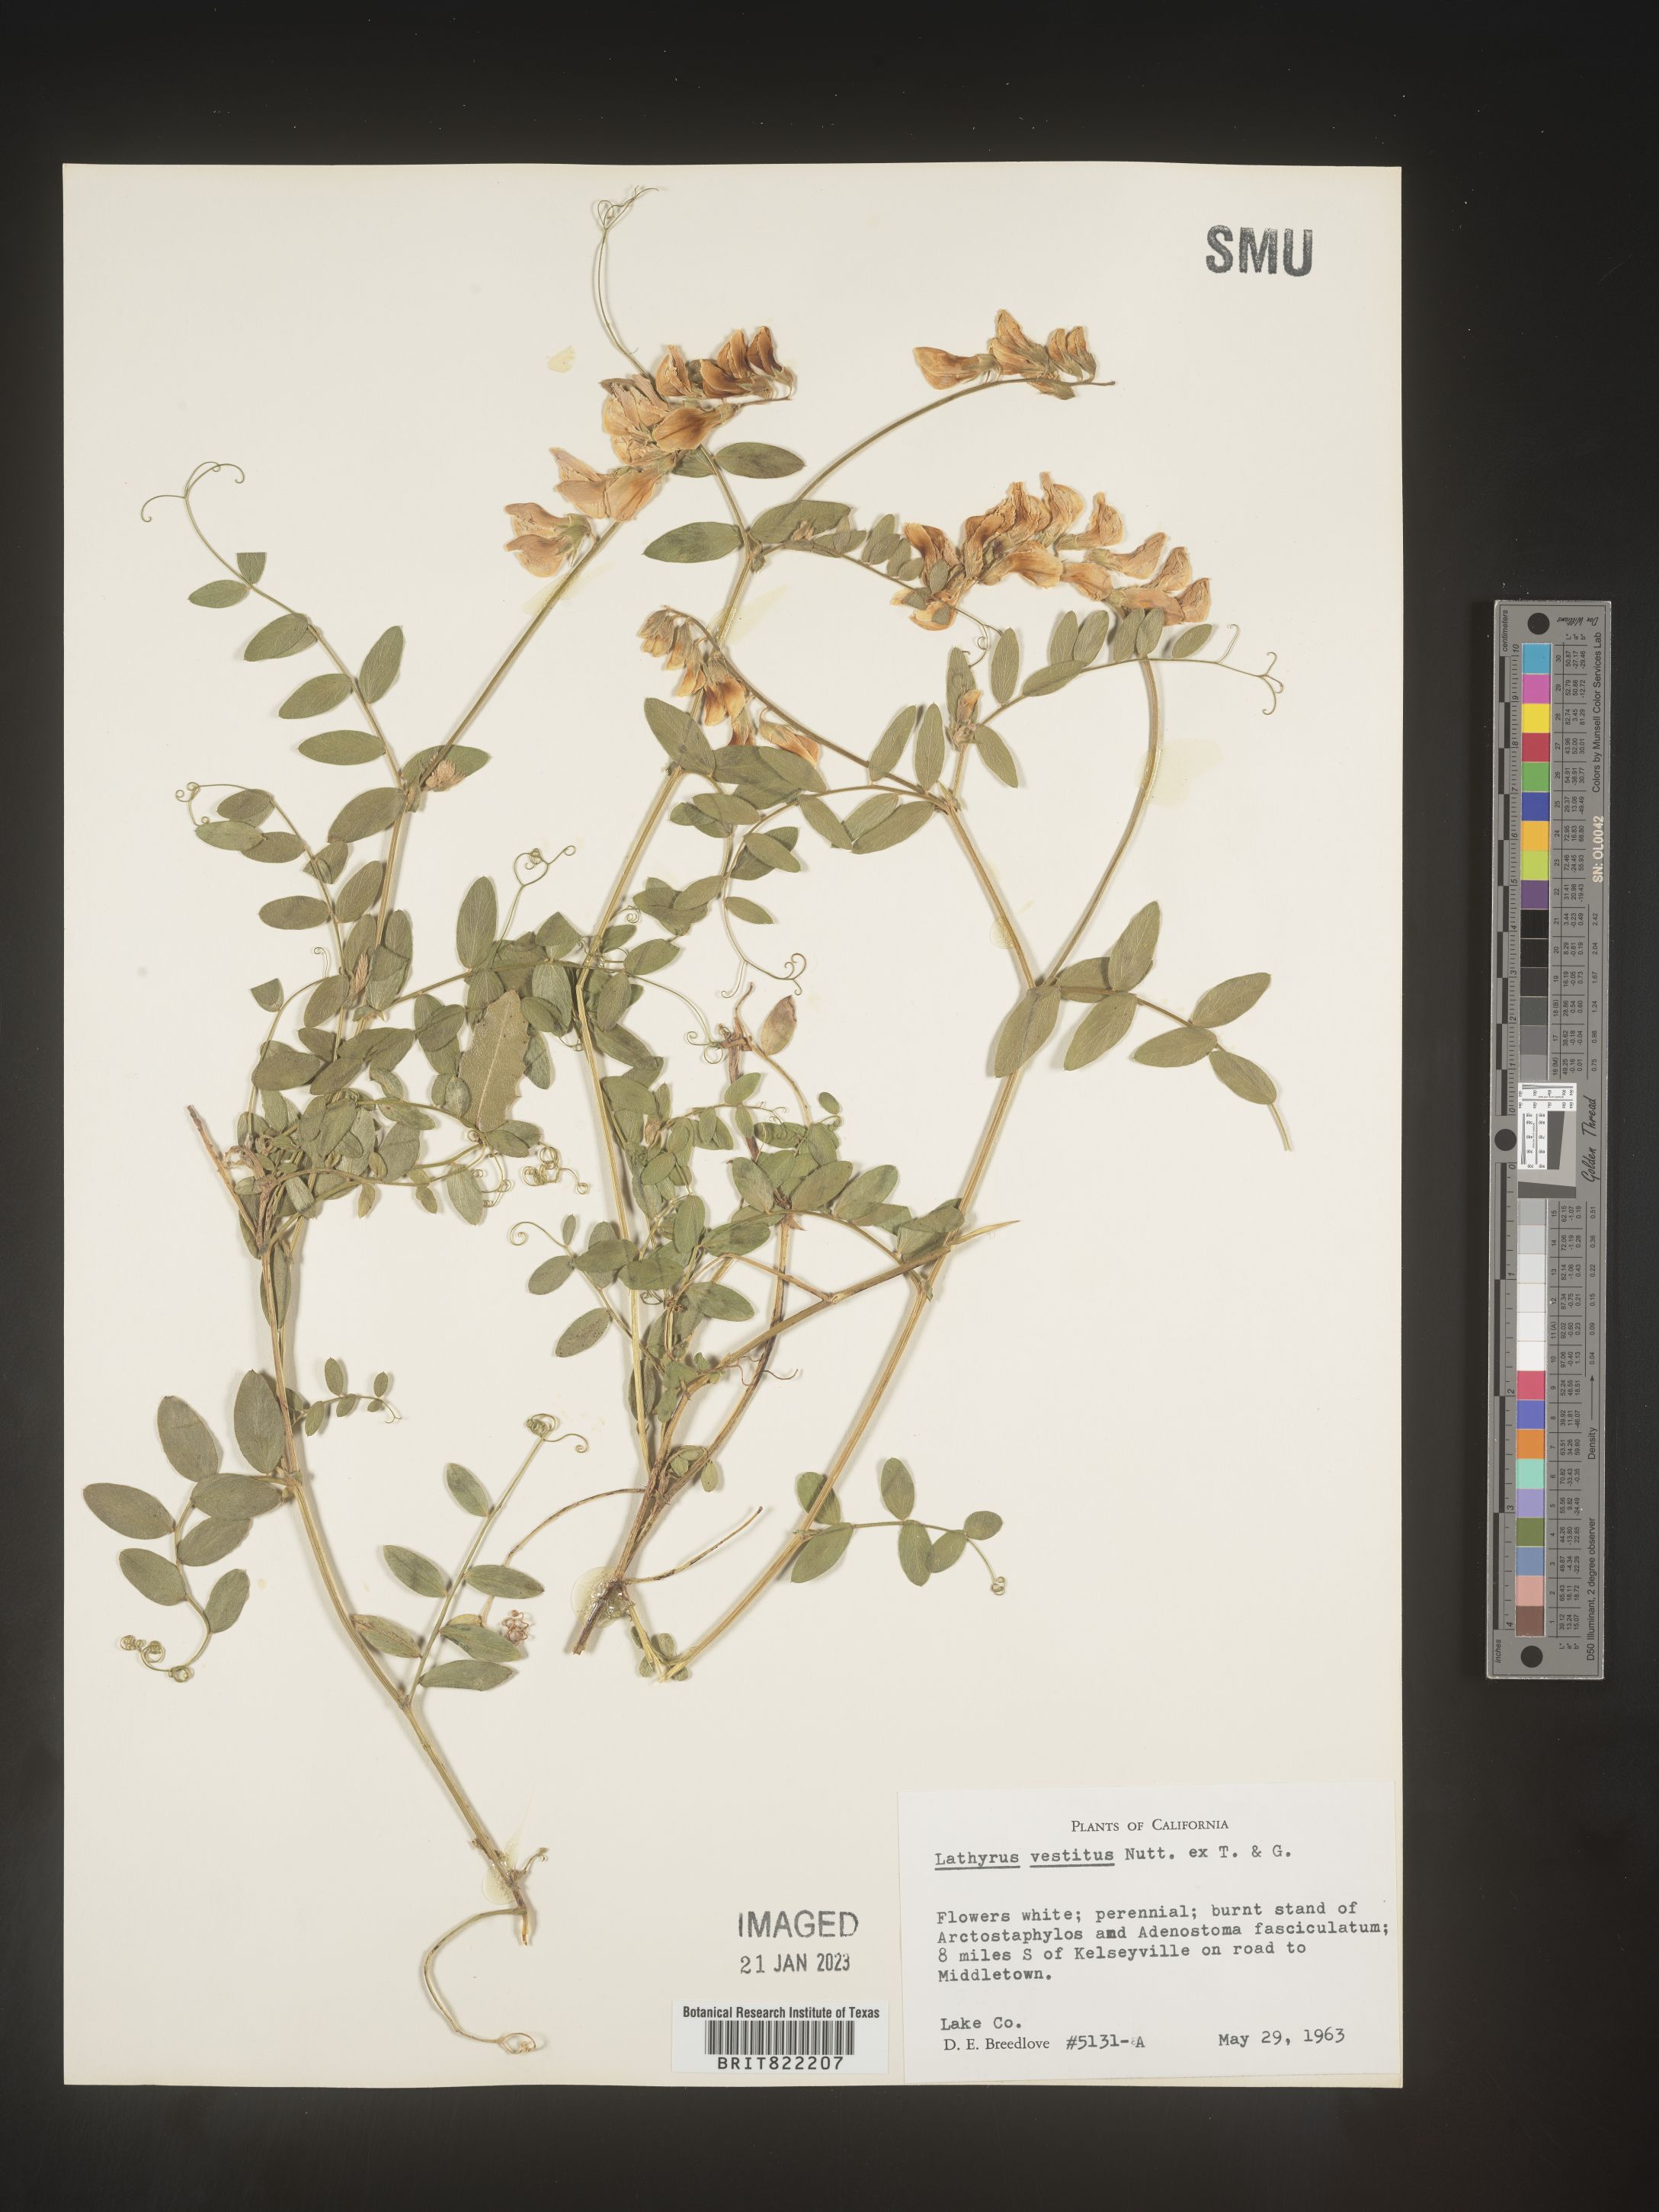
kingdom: Plantae
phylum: Tracheophyta
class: Magnoliopsida
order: Fabales
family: Fabaceae
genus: Lathyrus
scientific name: Lathyrus vestitus
